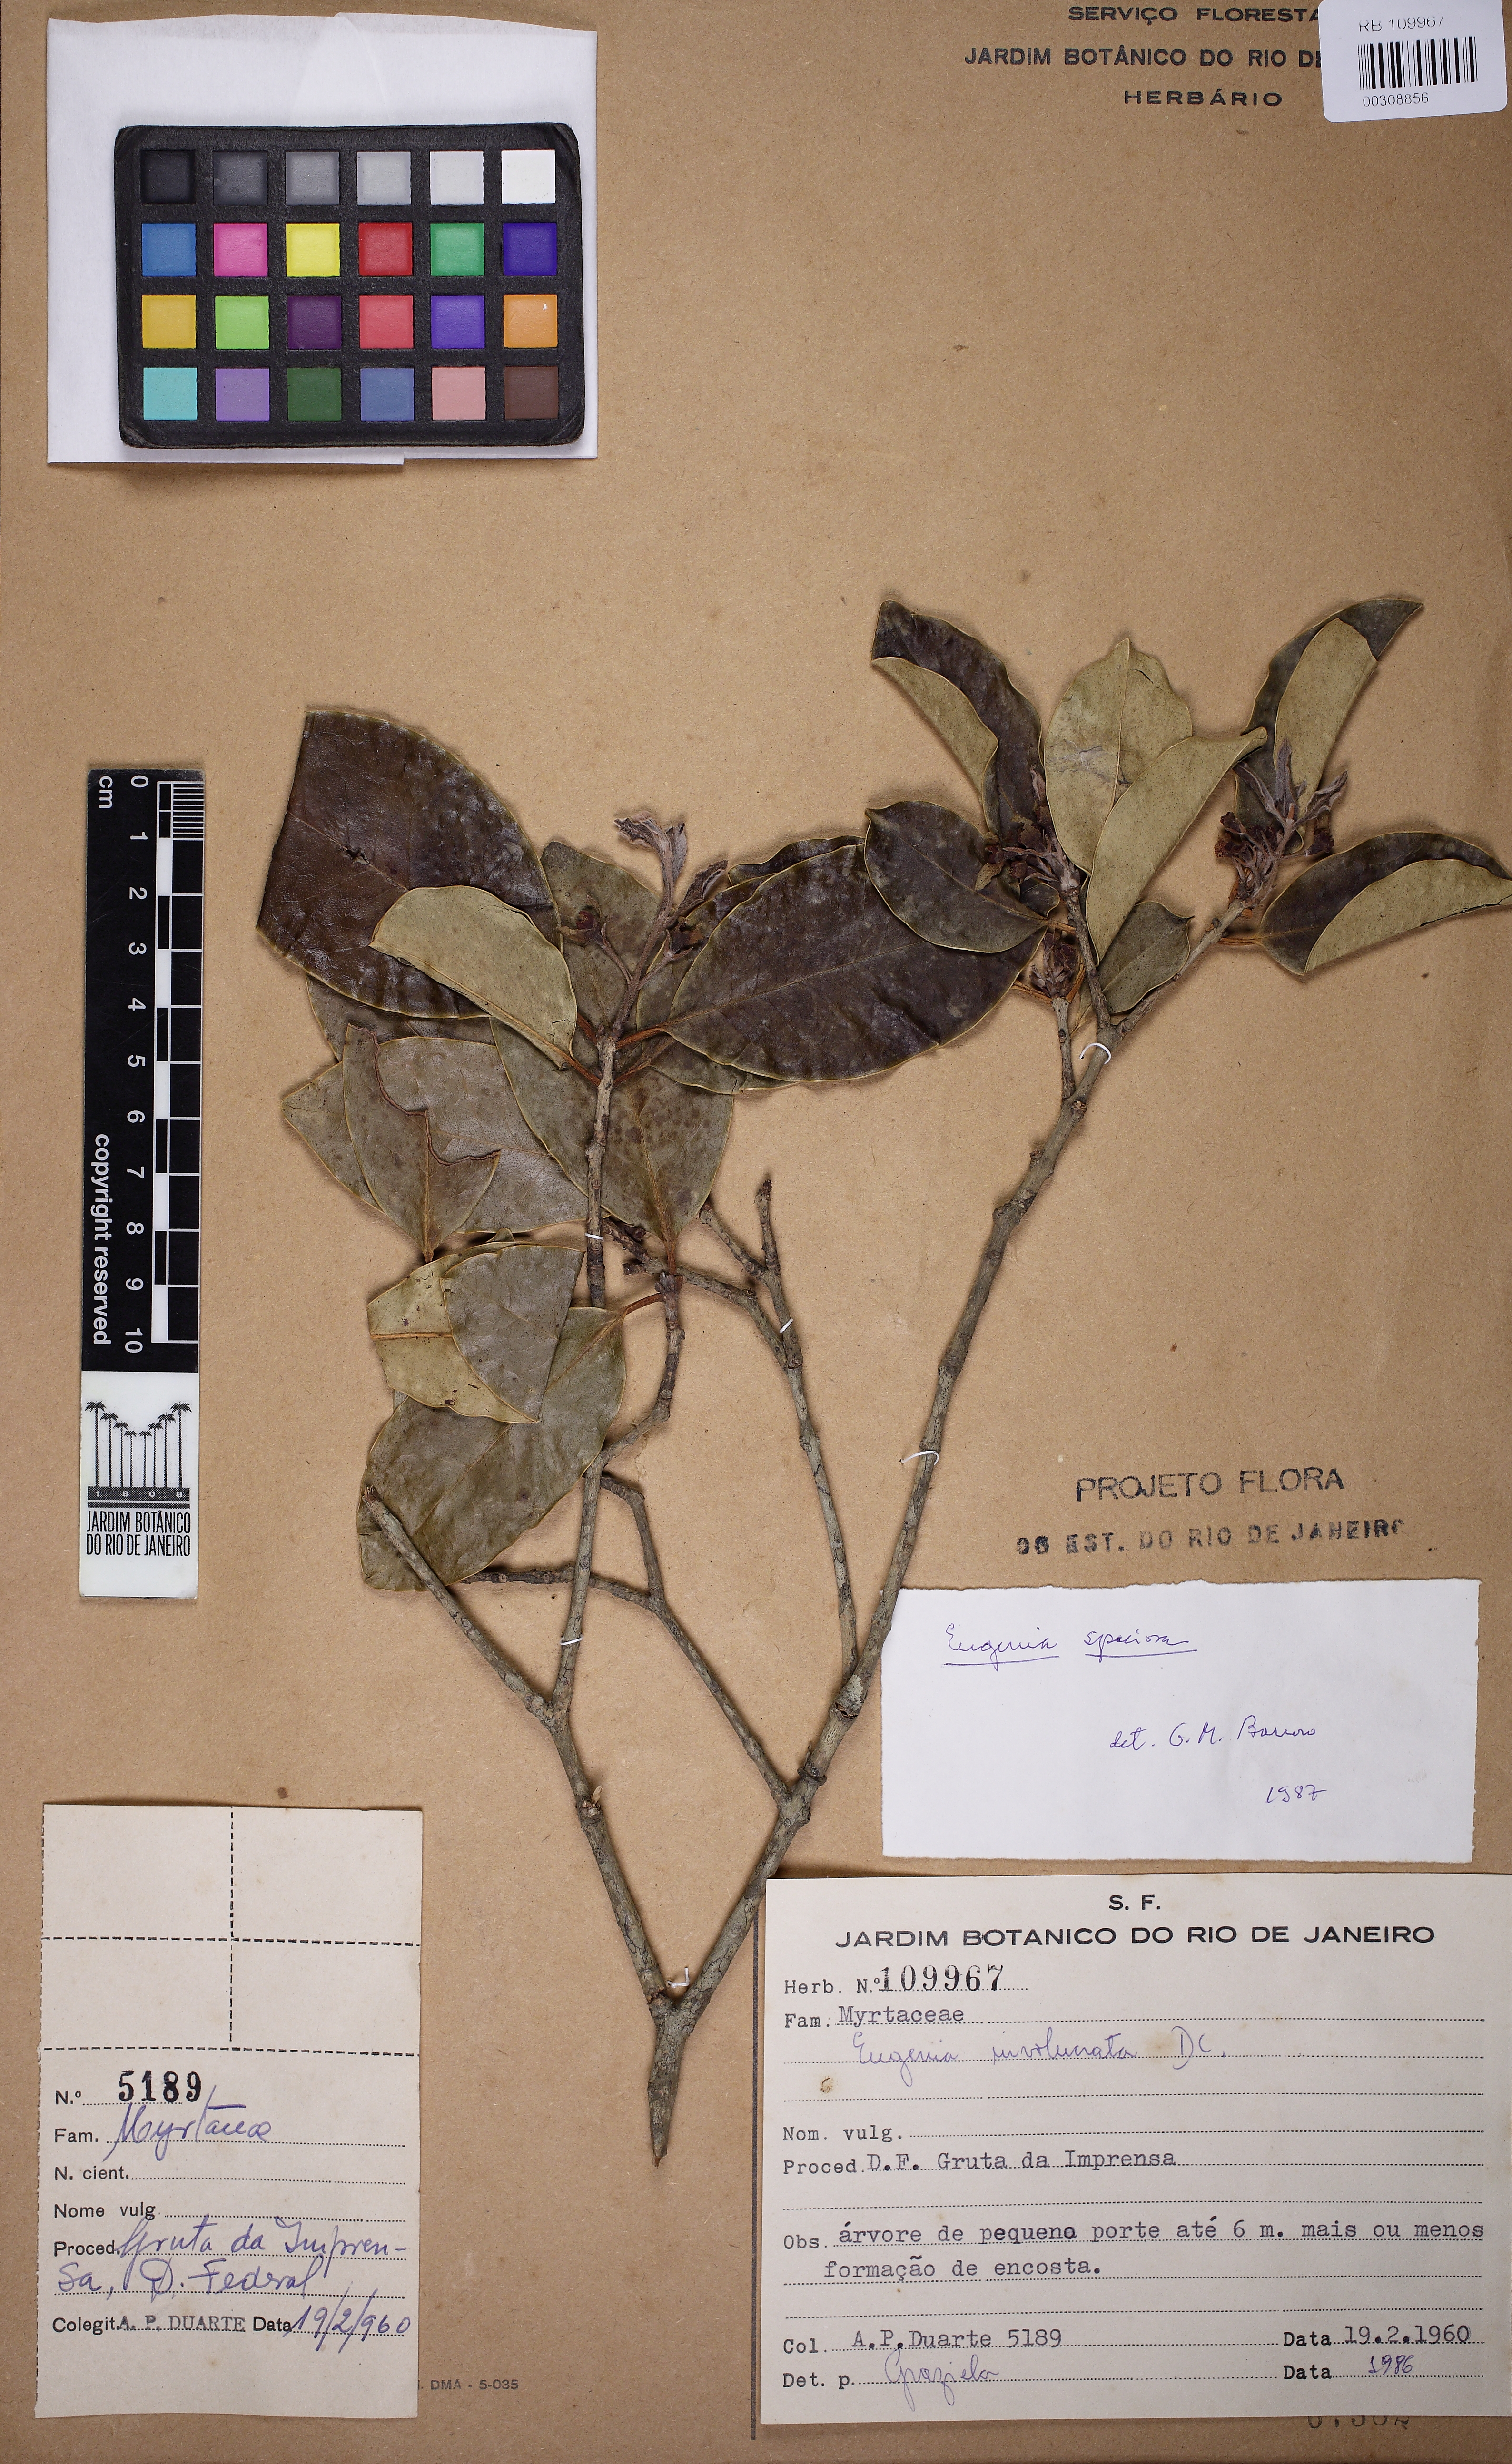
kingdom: Plantae
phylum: Tracheophyta
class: Magnoliopsida
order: Myrtales
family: Myrtaceae
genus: Eugenia
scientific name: Eugenia speciosa
